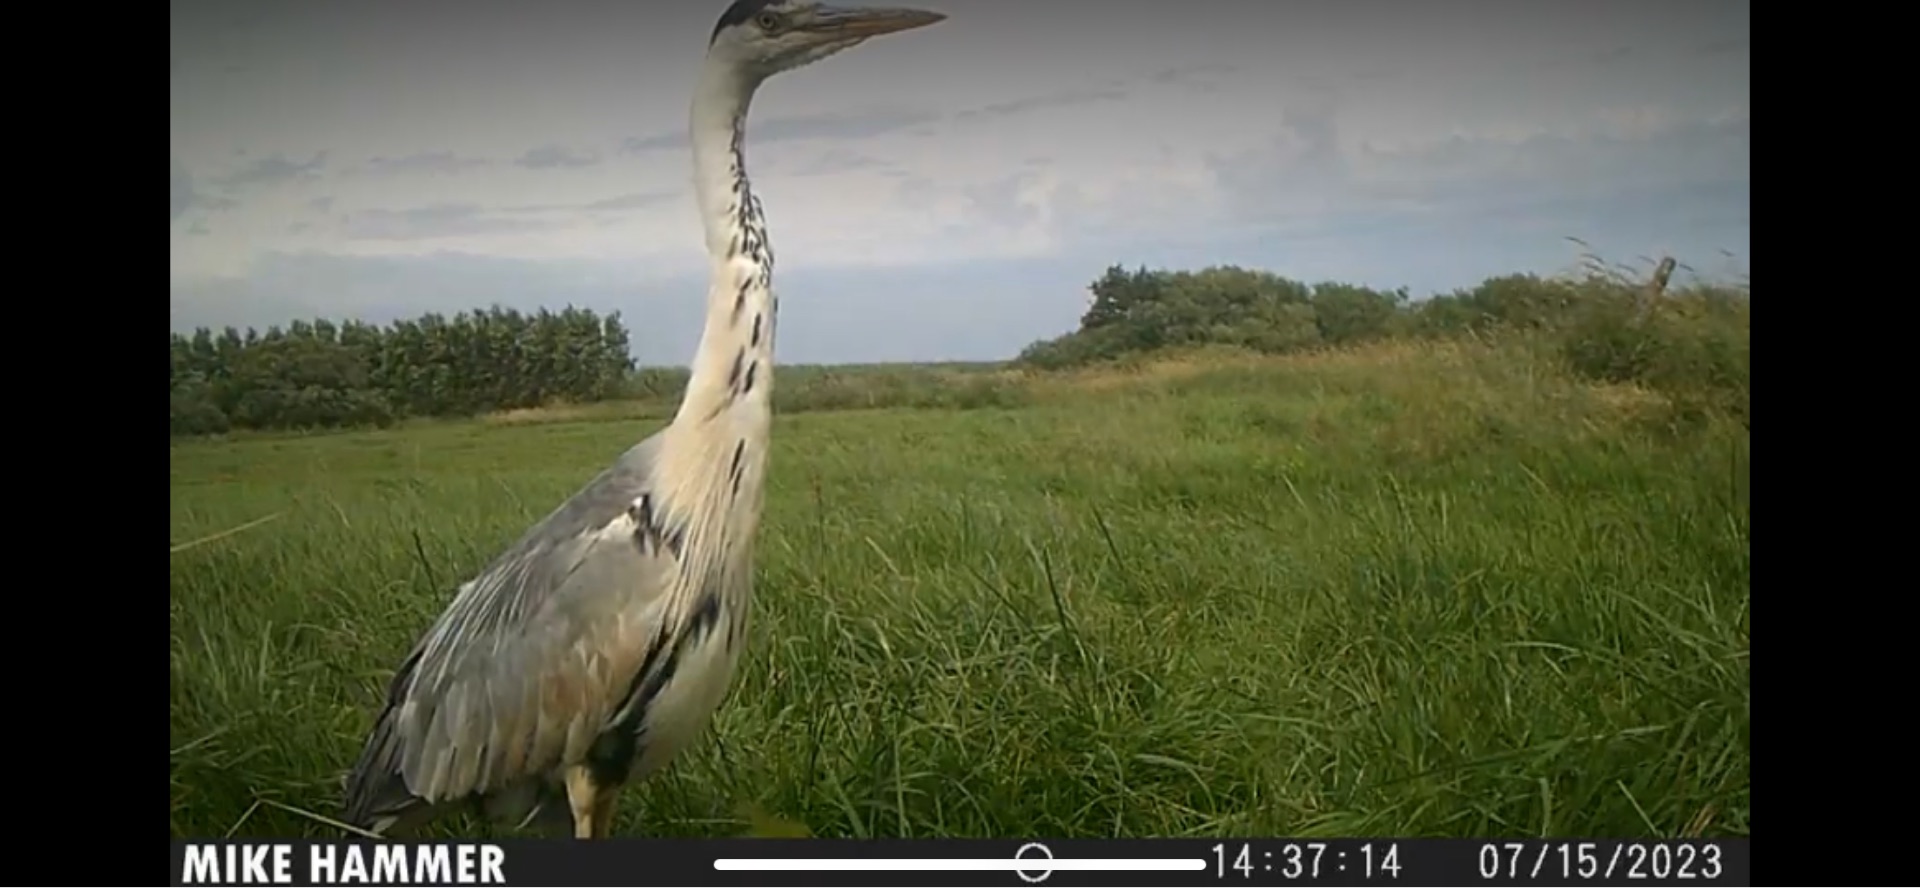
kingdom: Animalia
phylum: Chordata
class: Aves
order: Pelecaniformes
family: Ardeidae
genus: Ardea
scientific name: Ardea cinerea
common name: Fiskehejre
